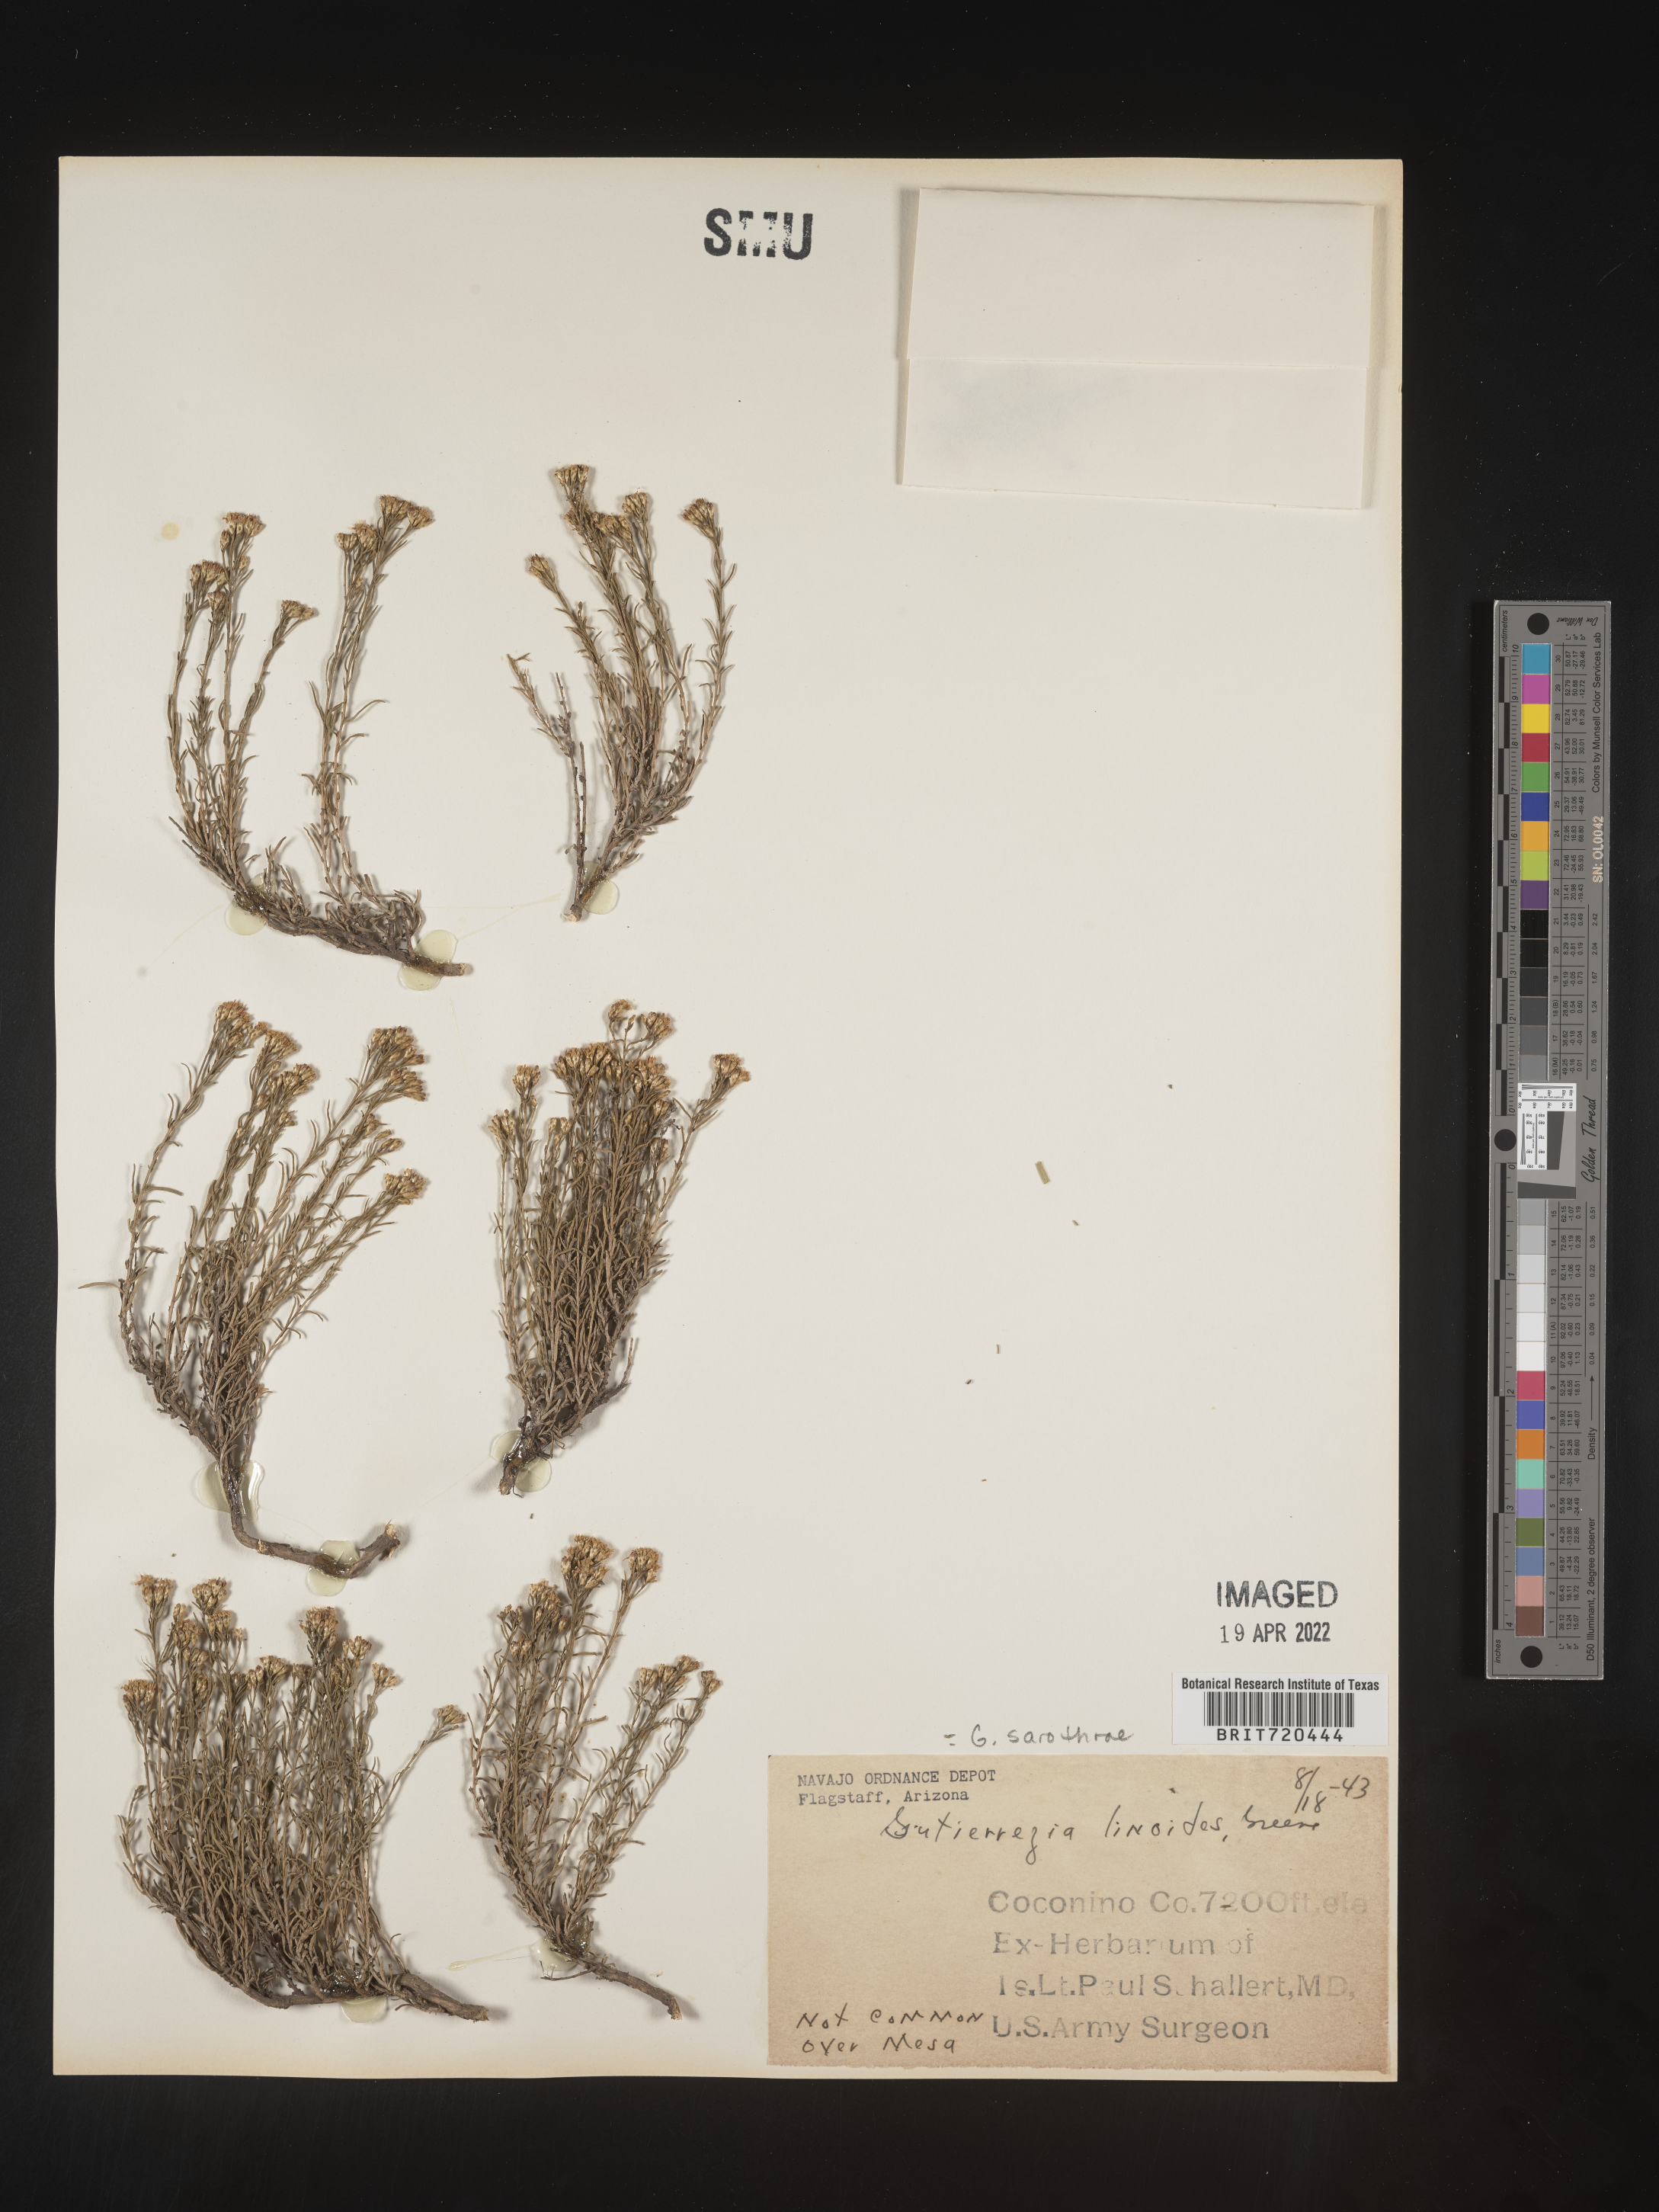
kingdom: Plantae
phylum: Tracheophyta
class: Magnoliopsida
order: Asterales
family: Asteraceae
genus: Gutierrezia
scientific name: Gutierrezia sarothrae
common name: Broom snakeweed
